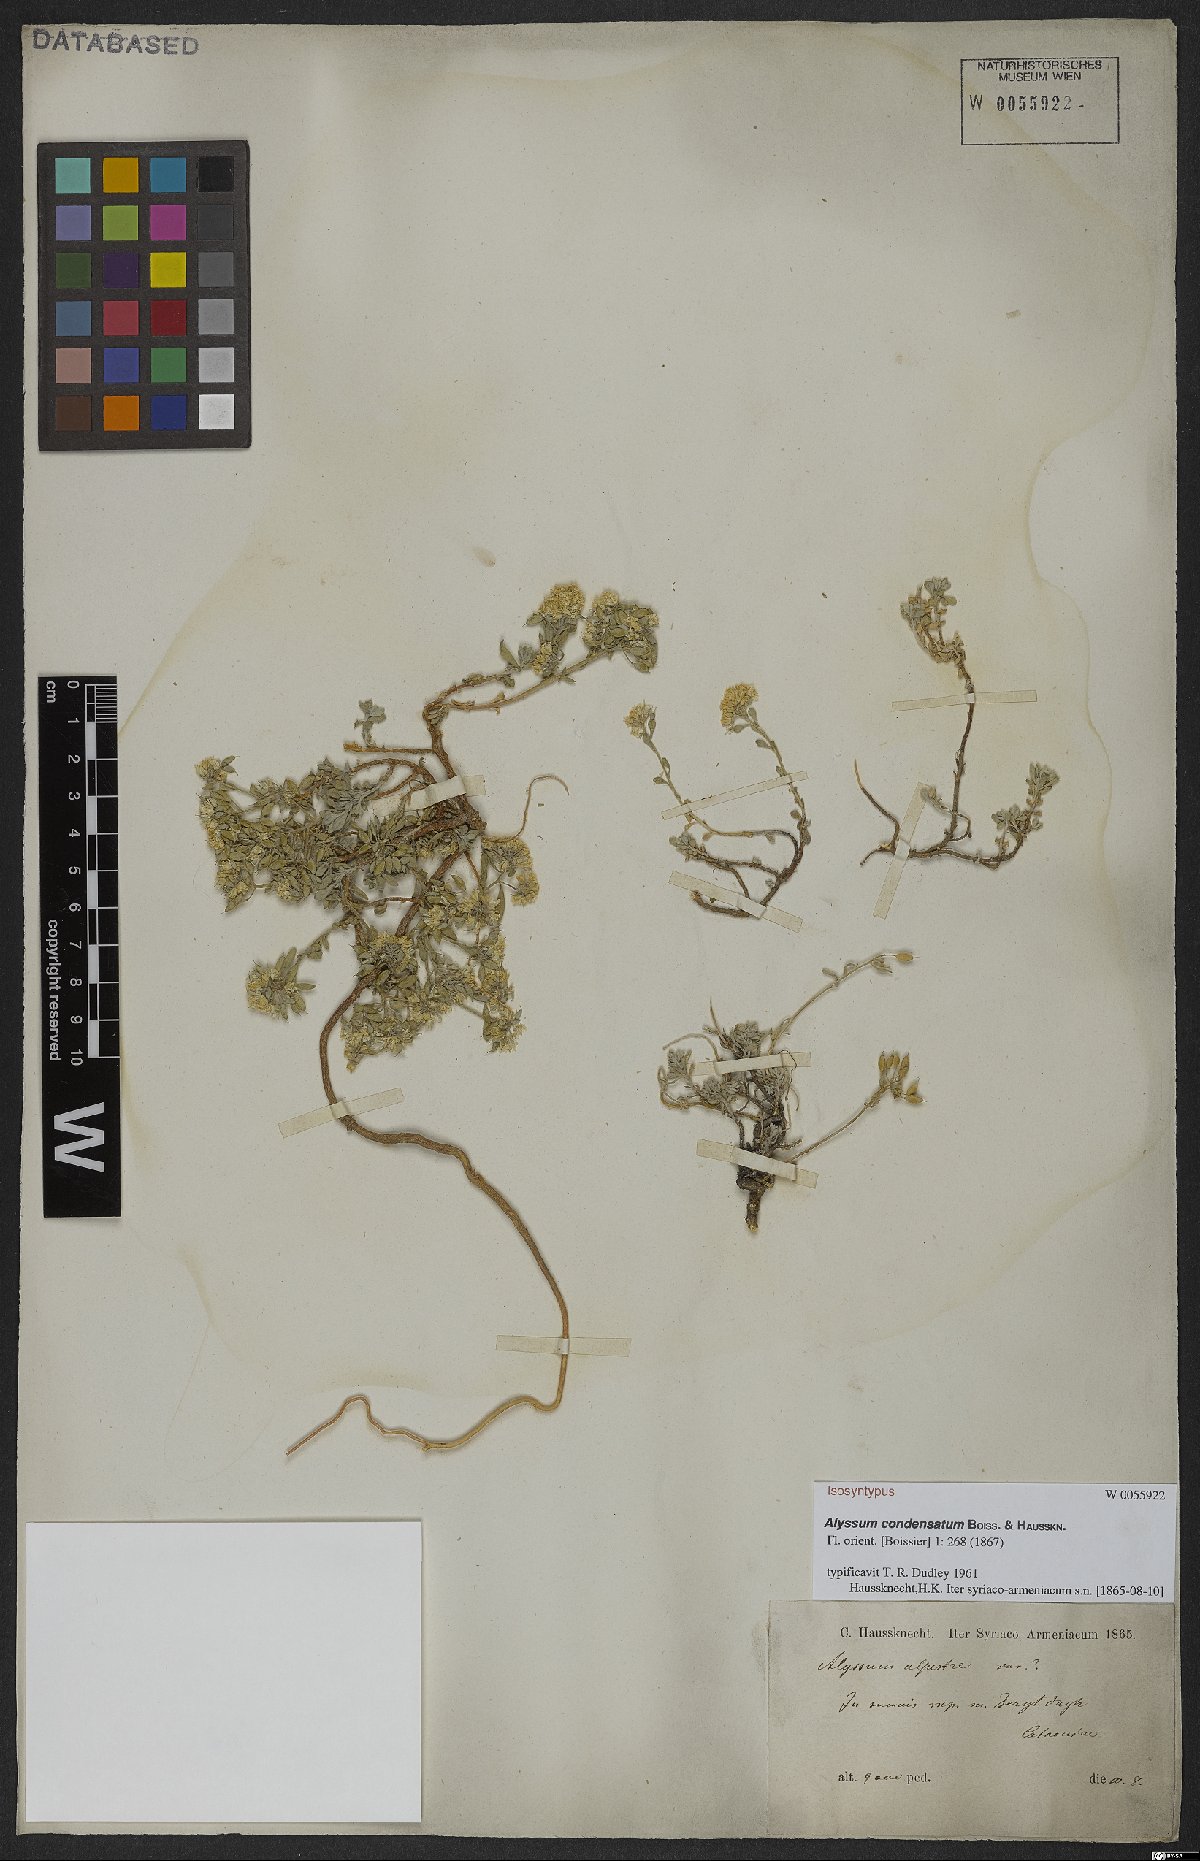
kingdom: Plantae
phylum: Tracheophyta
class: Magnoliopsida
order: Brassicales
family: Brassicaceae
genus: Odontarrhena
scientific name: Odontarrhena condensata
